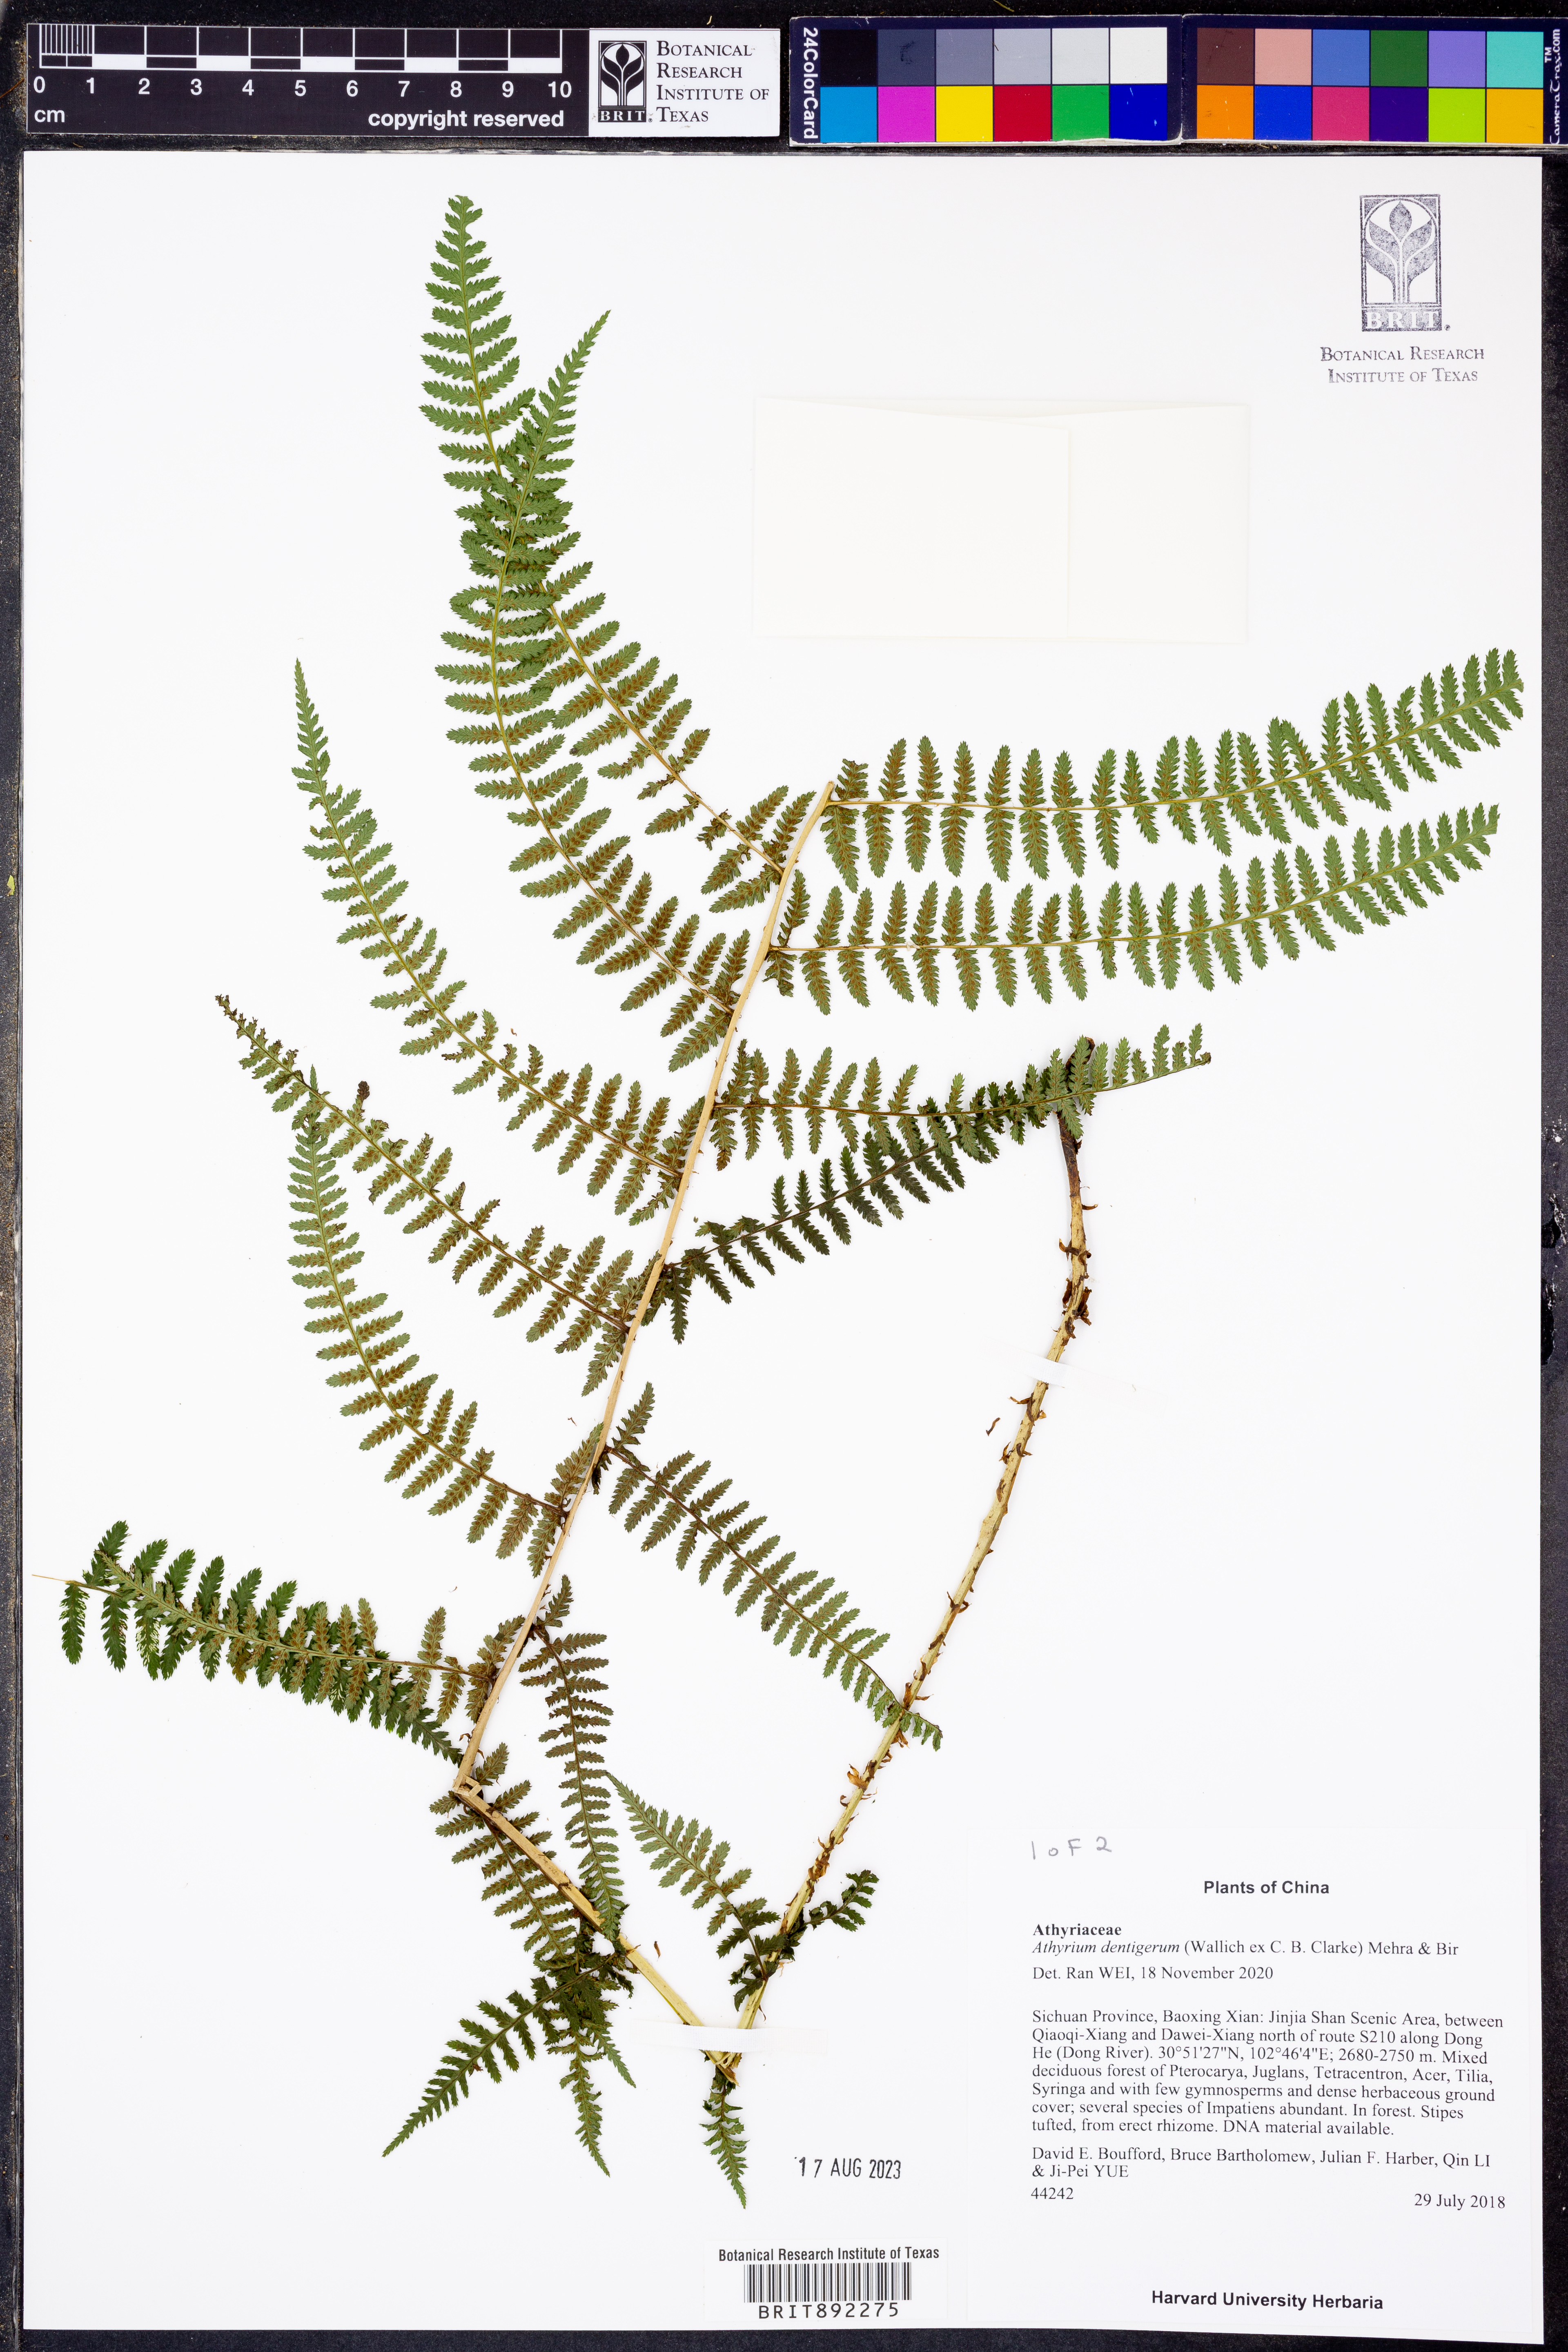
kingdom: Plantae
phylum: Tracheophyta
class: Polypodiopsida
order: Polypodiales
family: Athyriaceae
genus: Athyrium
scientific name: Athyrium attenuatum
